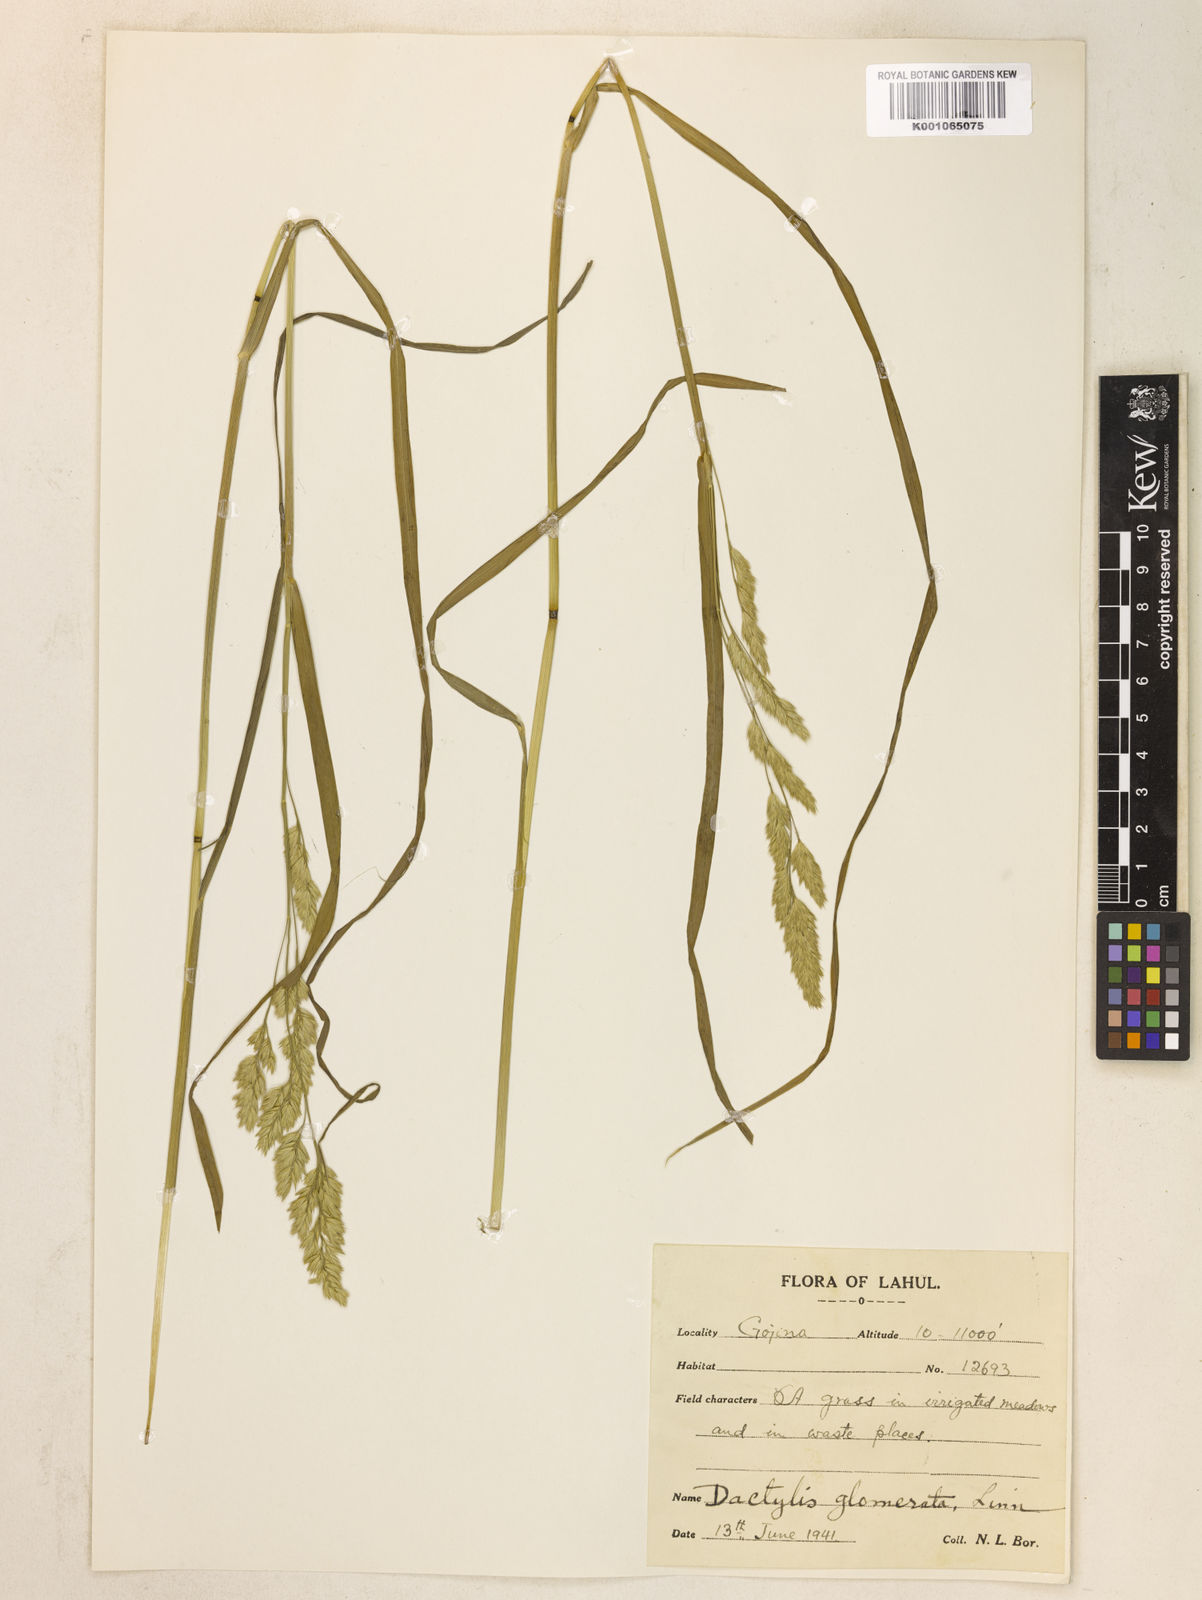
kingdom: Plantae
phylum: Tracheophyta
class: Liliopsida
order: Poales
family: Poaceae
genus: Dactylis
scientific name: Dactylis glomerata
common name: Orchardgrass
